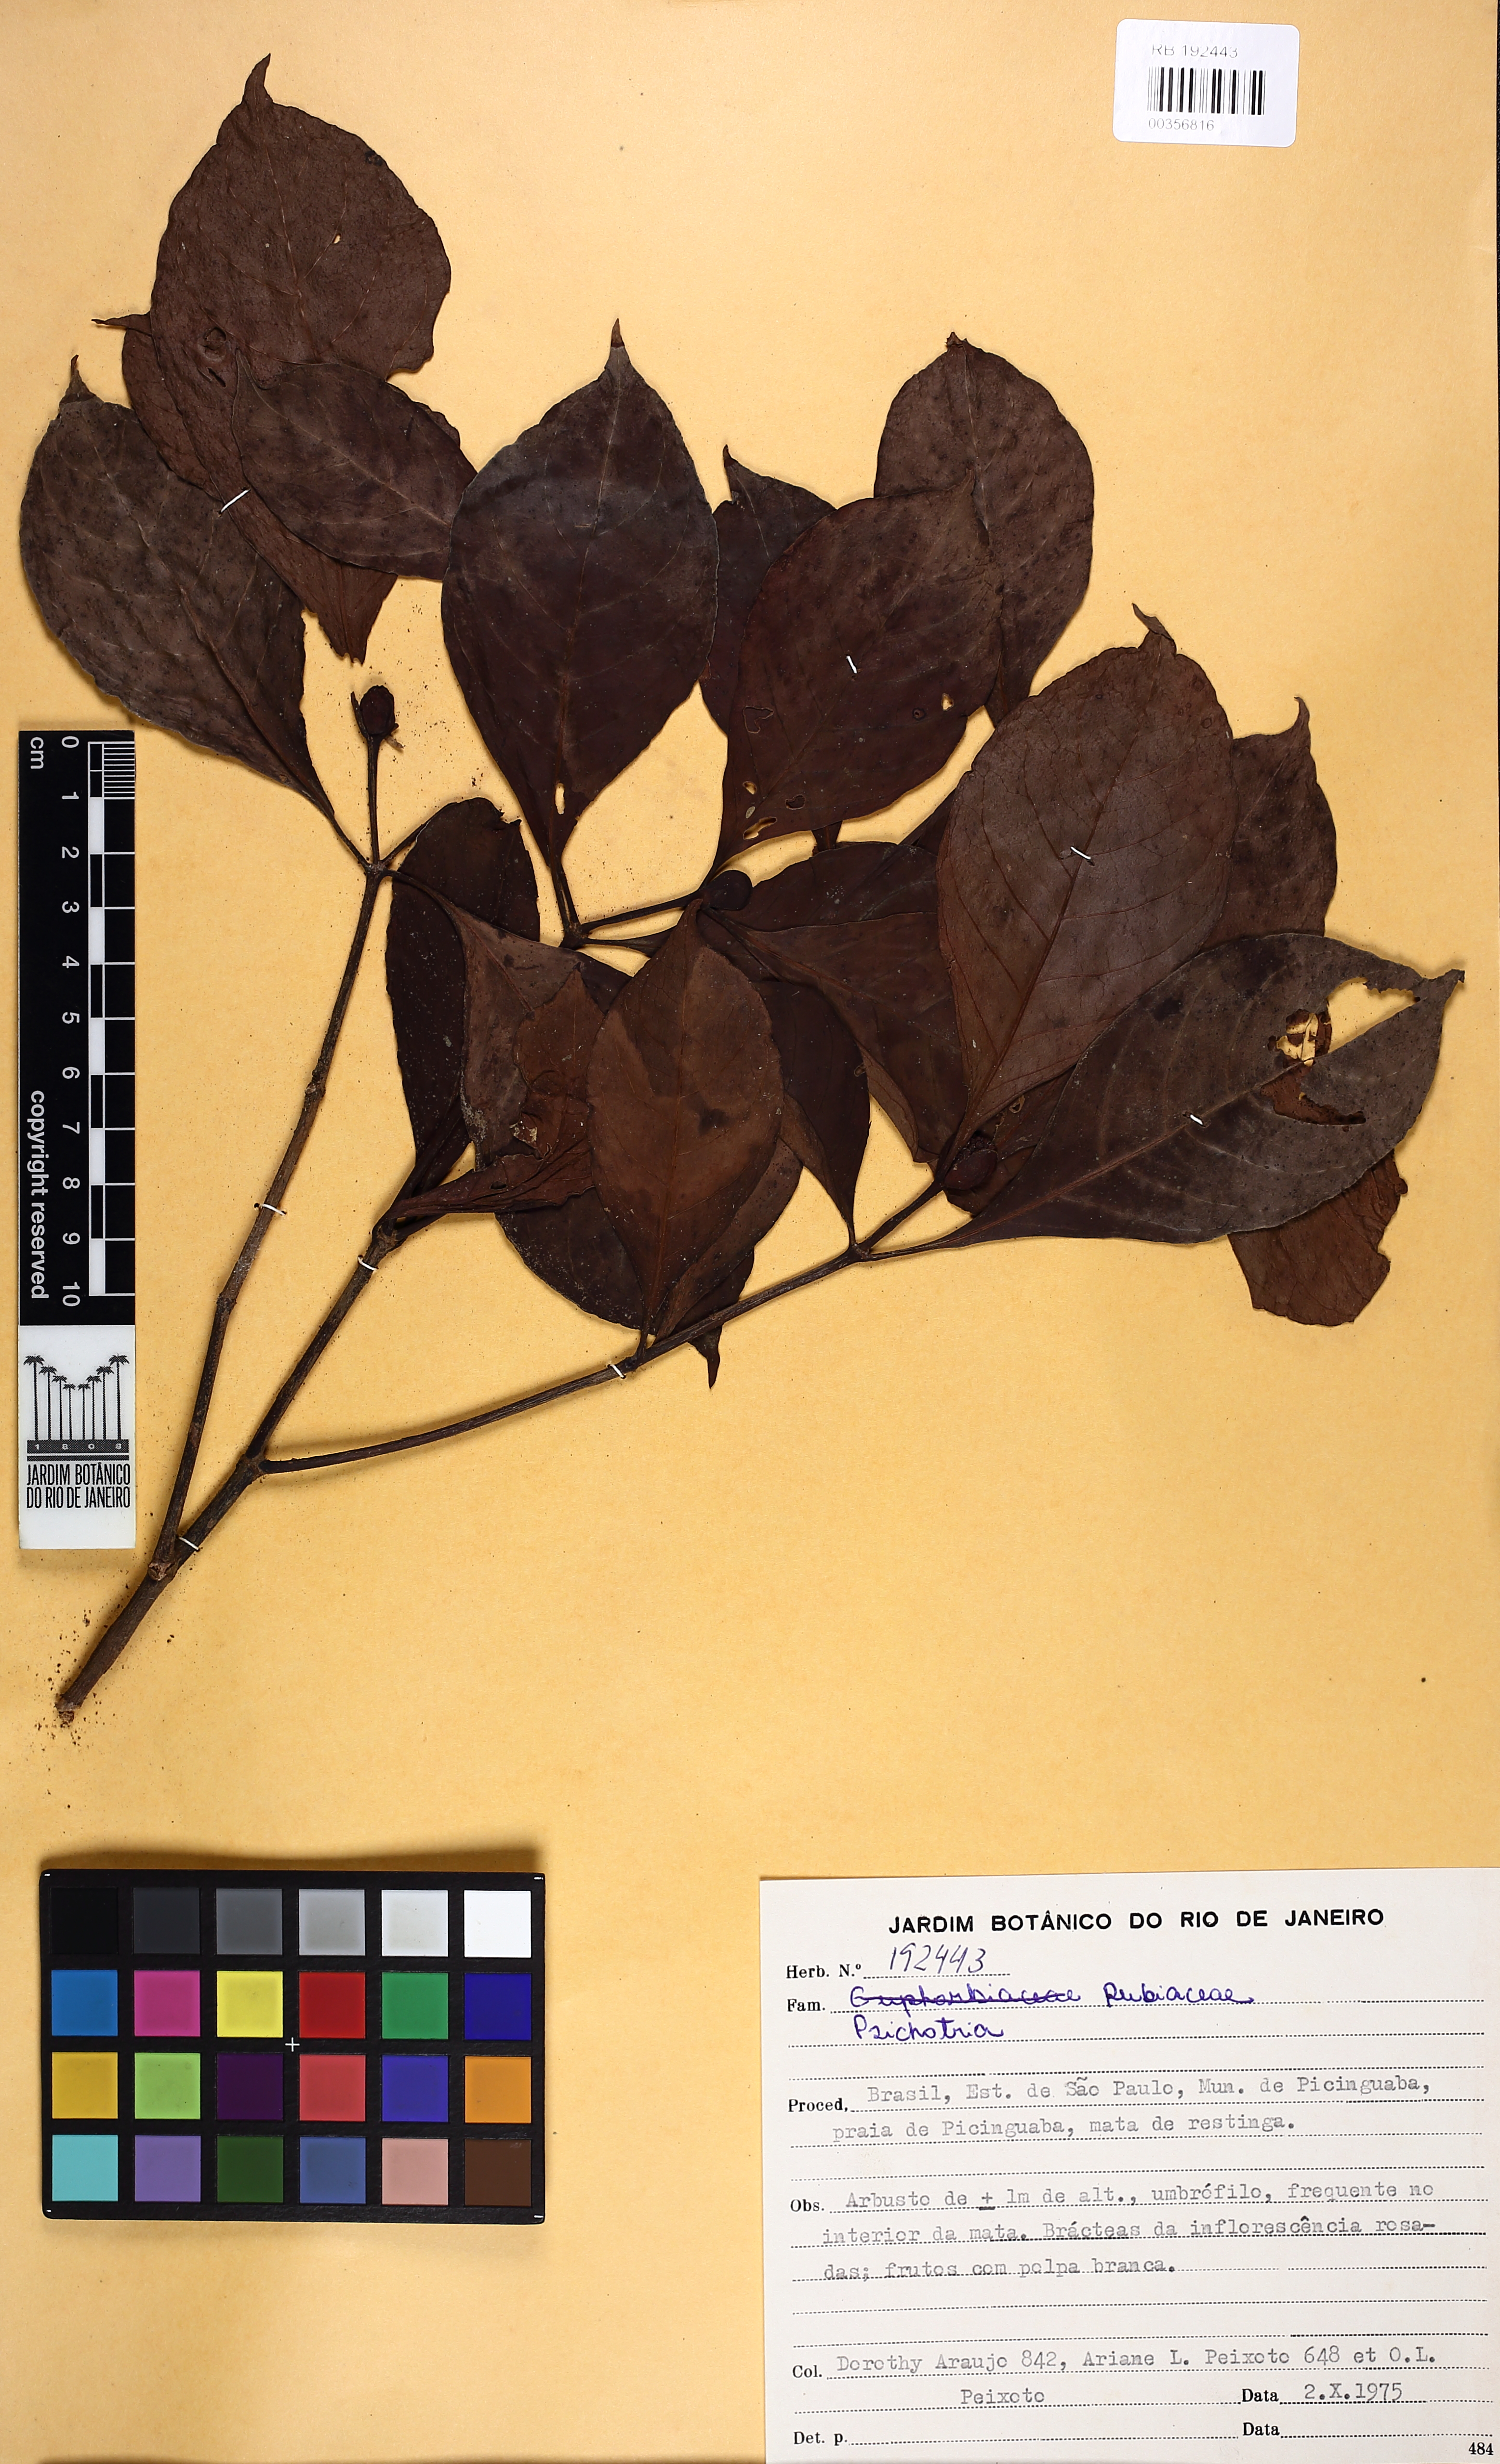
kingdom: Plantae
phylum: Tracheophyta
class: Magnoliopsida
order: Gentianales
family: Rubiaceae
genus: Psychotria
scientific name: Psychotria cupularis
